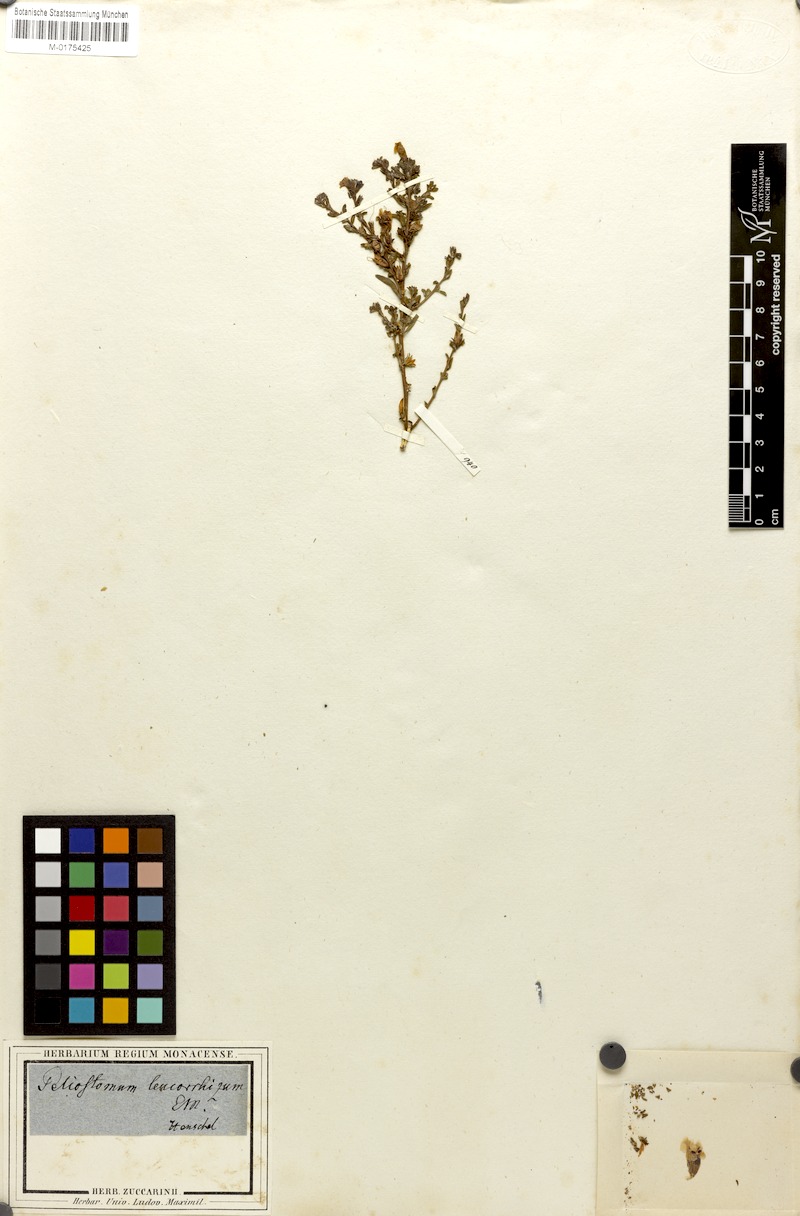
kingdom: Plantae
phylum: Tracheophyta
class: Magnoliopsida
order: Lamiales
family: Scrophulariaceae
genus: Peliostomum
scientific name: Peliostomum leucorrhizum
